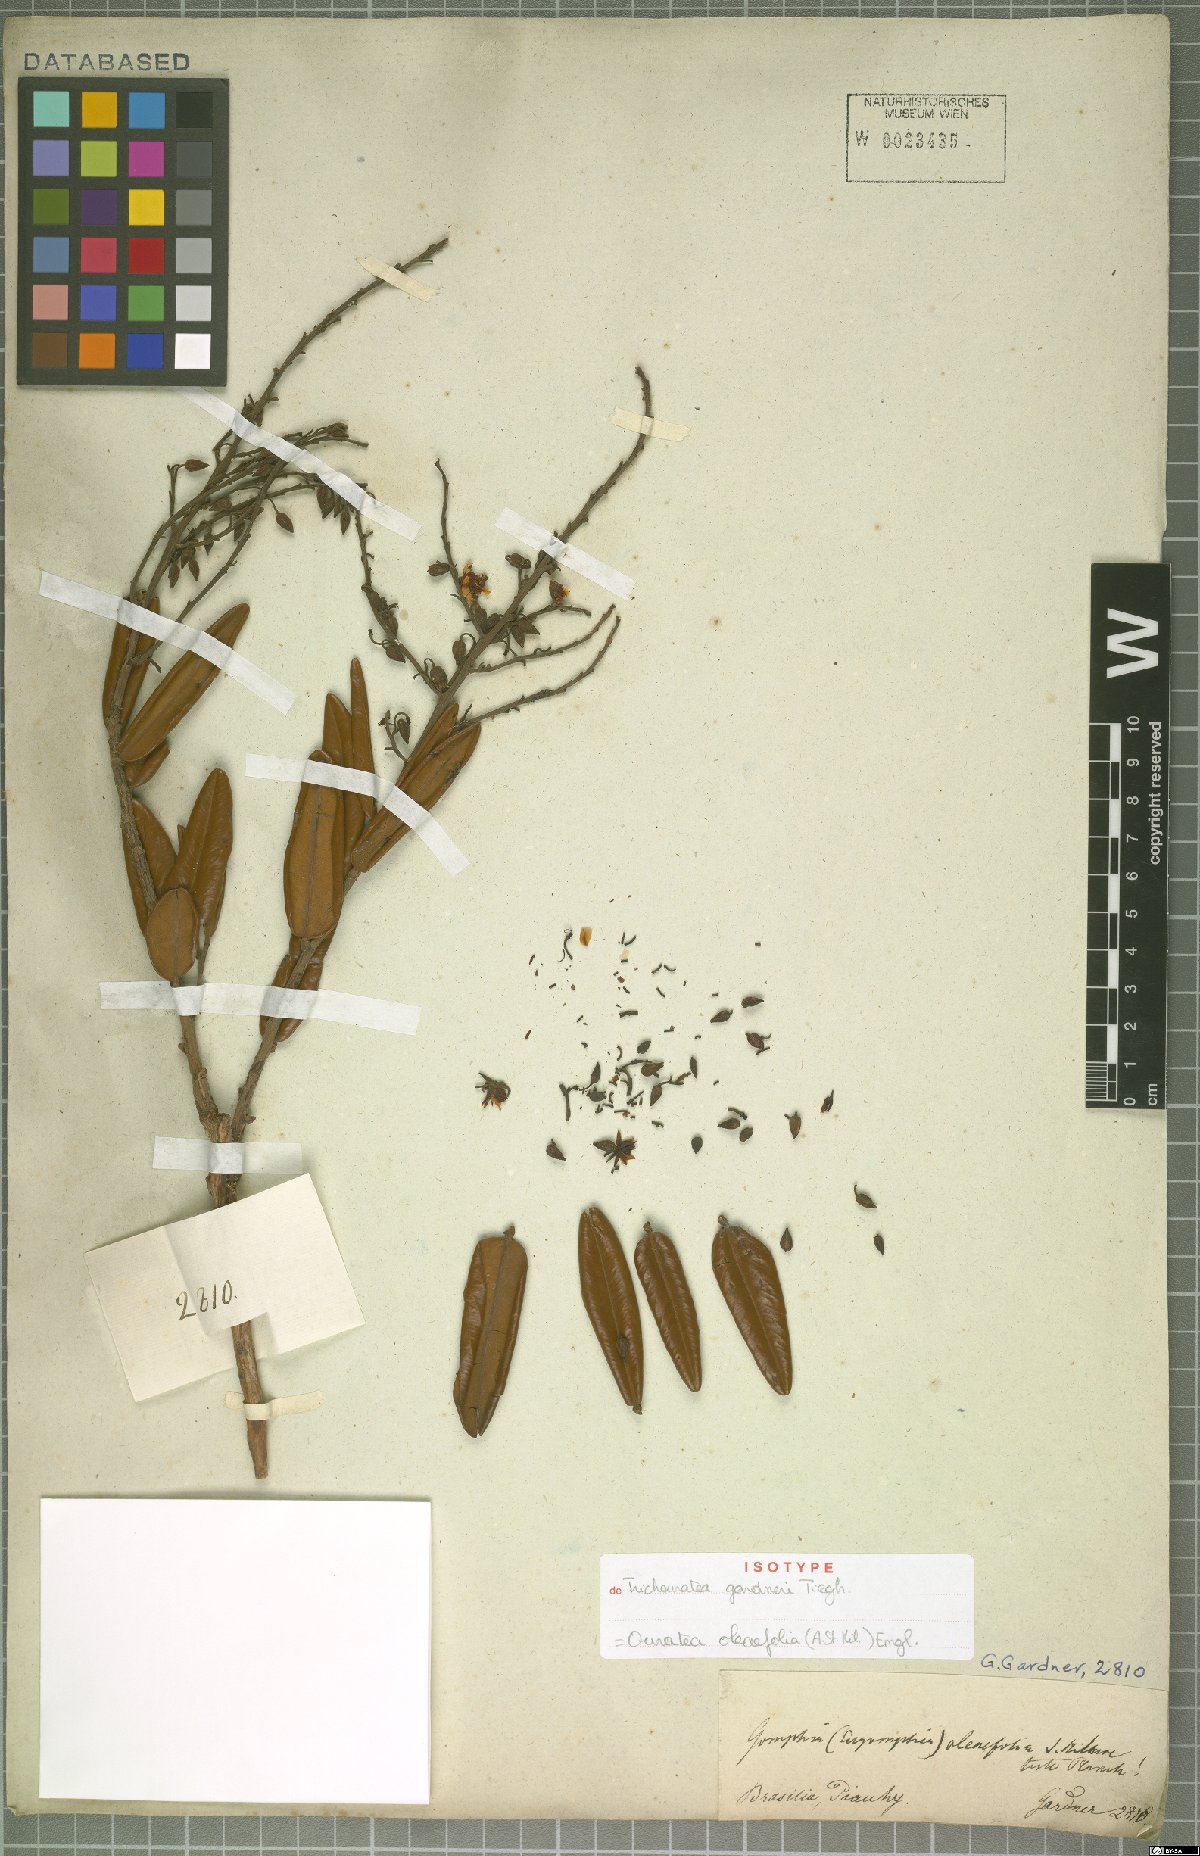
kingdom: Plantae
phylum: Tracheophyta
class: Magnoliopsida
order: Malpighiales
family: Ochnaceae
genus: Ouratea
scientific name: Ouratea oleifolia
